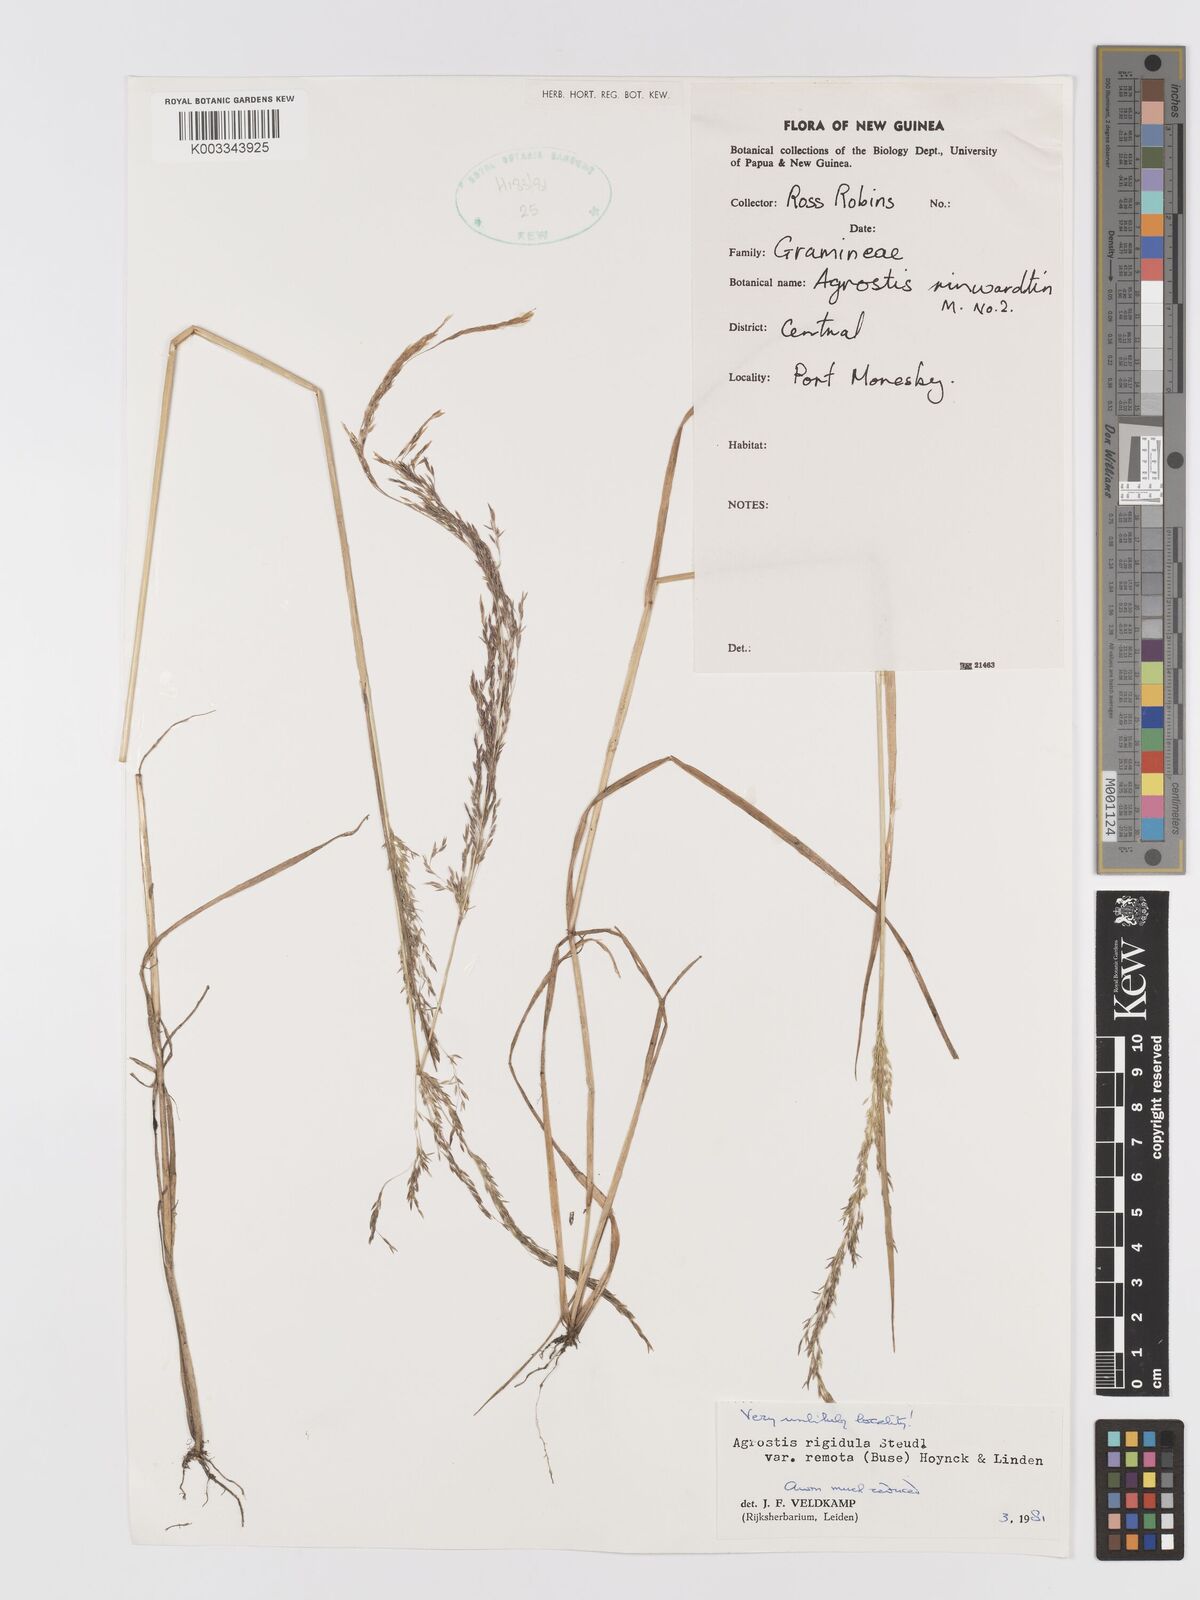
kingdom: Plantae
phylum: Tracheophyta
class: Liliopsida
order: Poales
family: Poaceae
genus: Agrostis
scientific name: Agrostis infirma
